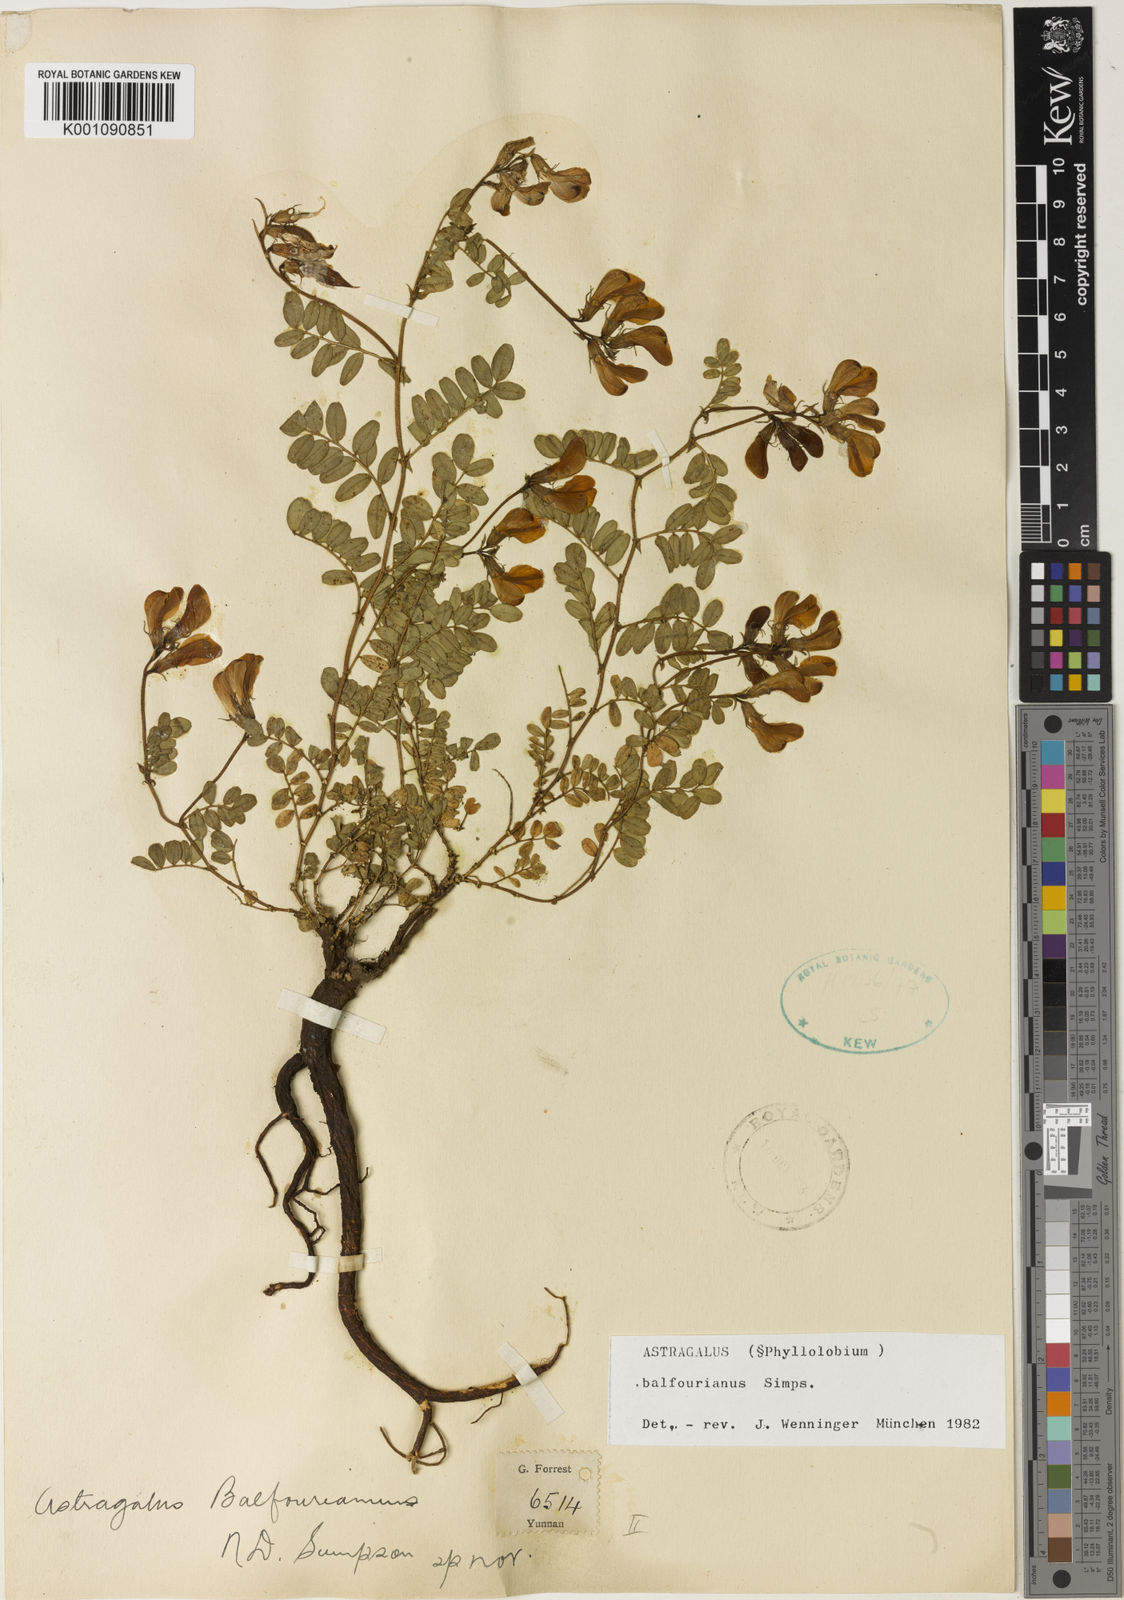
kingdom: Plantae
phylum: Tracheophyta
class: Magnoliopsida
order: Fabales
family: Fabaceae
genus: Astragalus
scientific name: Astragalus
